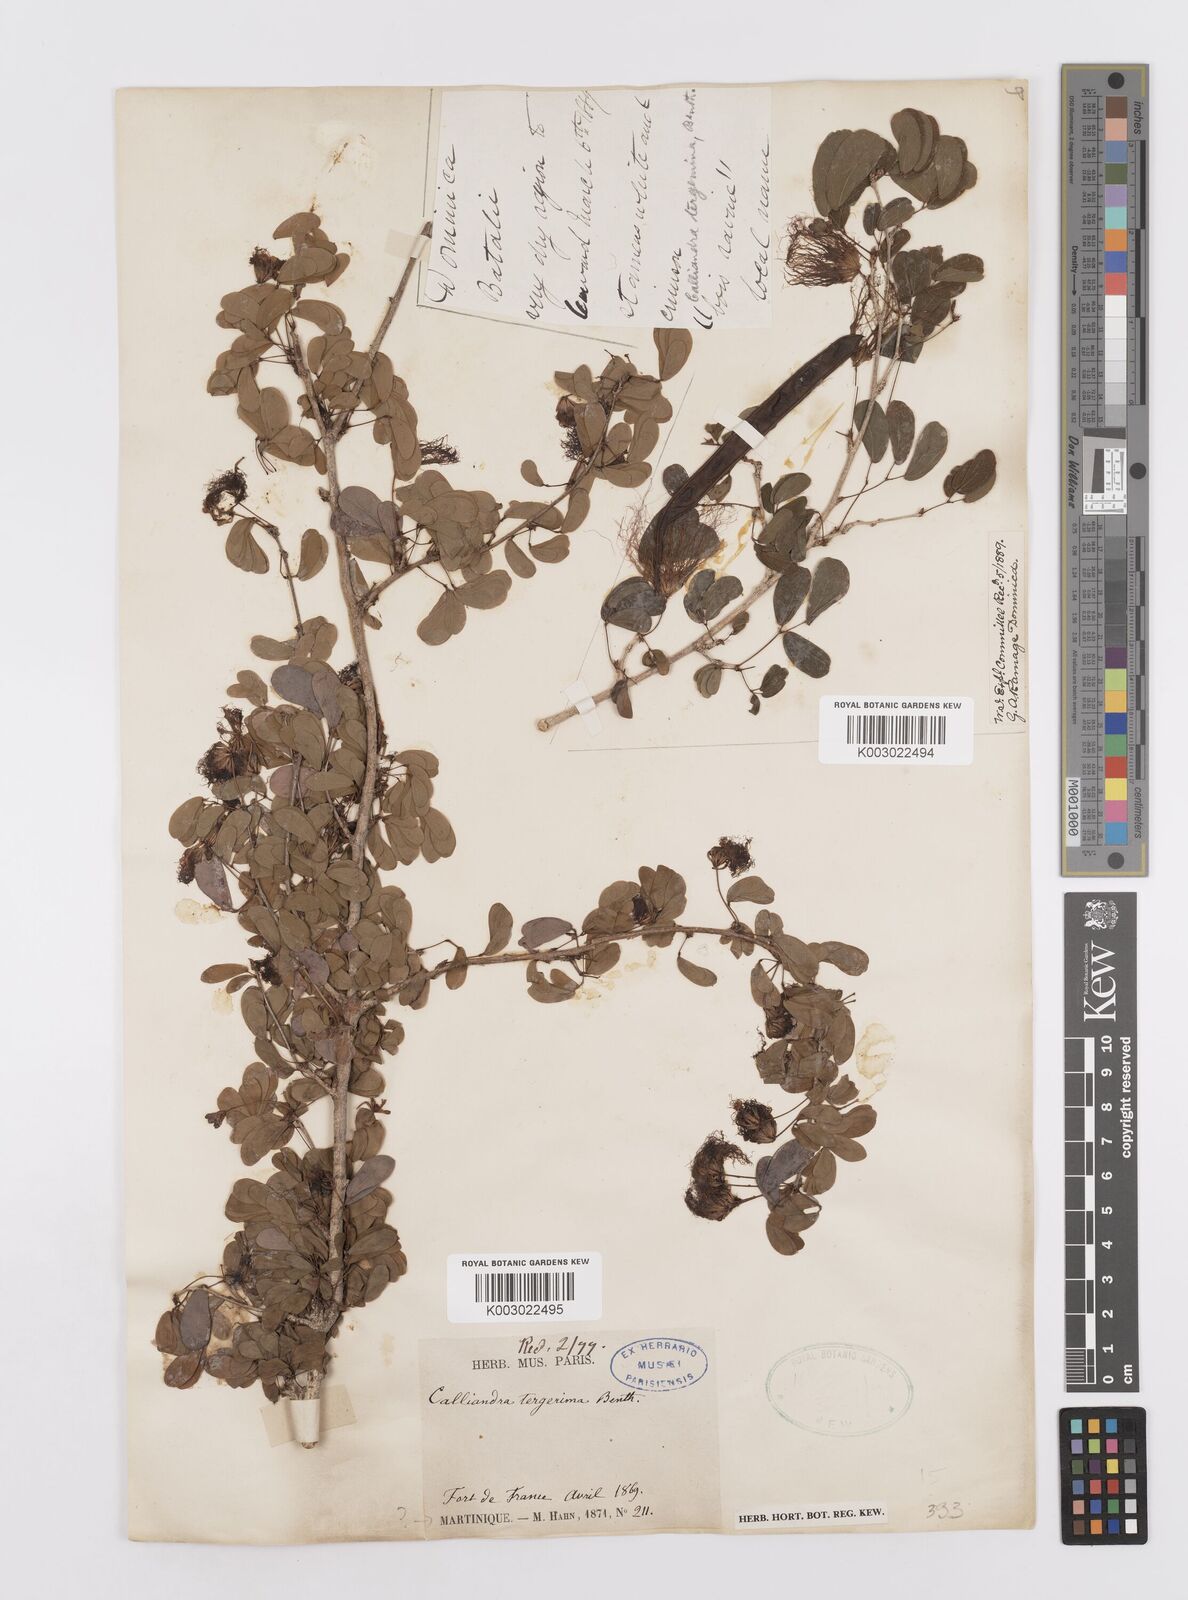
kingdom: Plantae
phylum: Tracheophyta
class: Magnoliopsida
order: Fabales
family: Fabaceae
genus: Calliandra
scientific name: Calliandra tergemina
